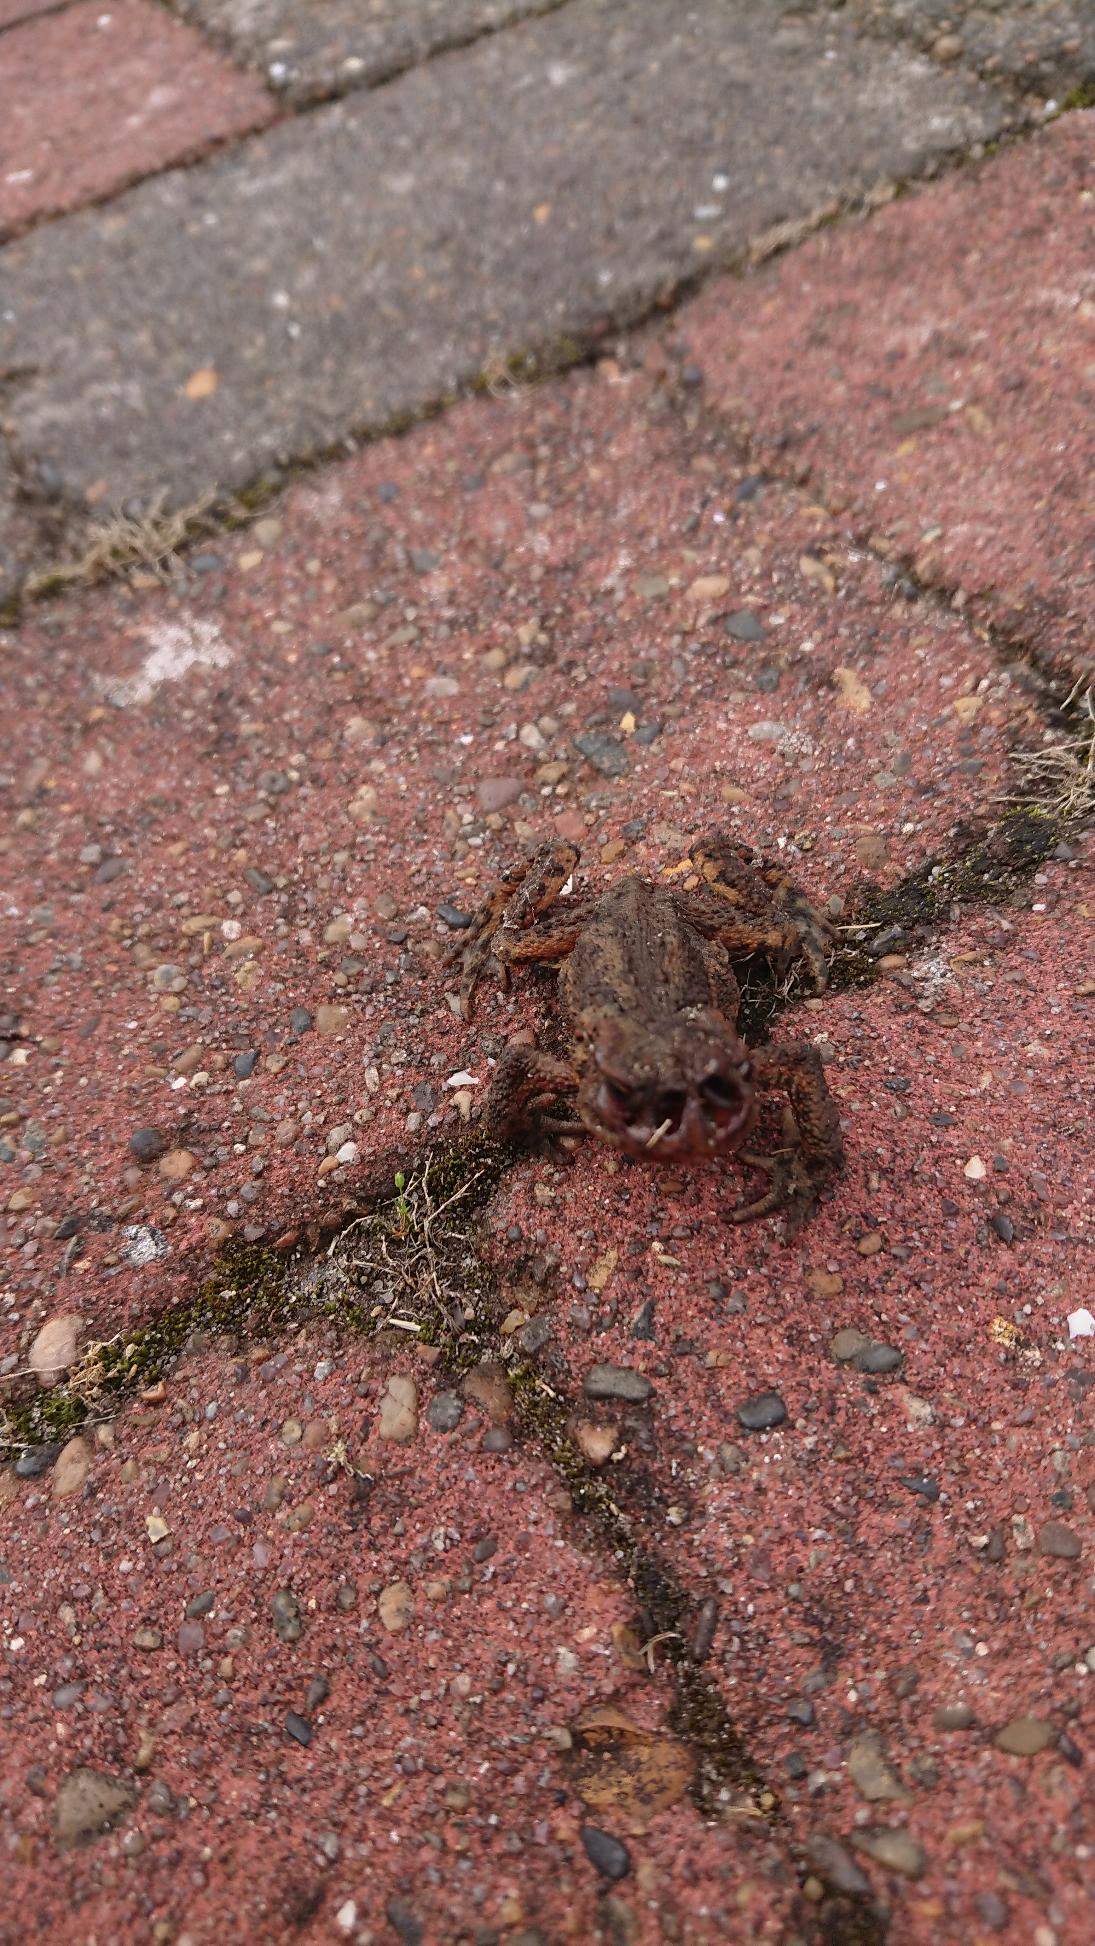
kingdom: Animalia
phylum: Chordata
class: Amphibia
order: Anura
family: Bufonidae
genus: Bufo
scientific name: Bufo bufo
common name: Skrubtudse
